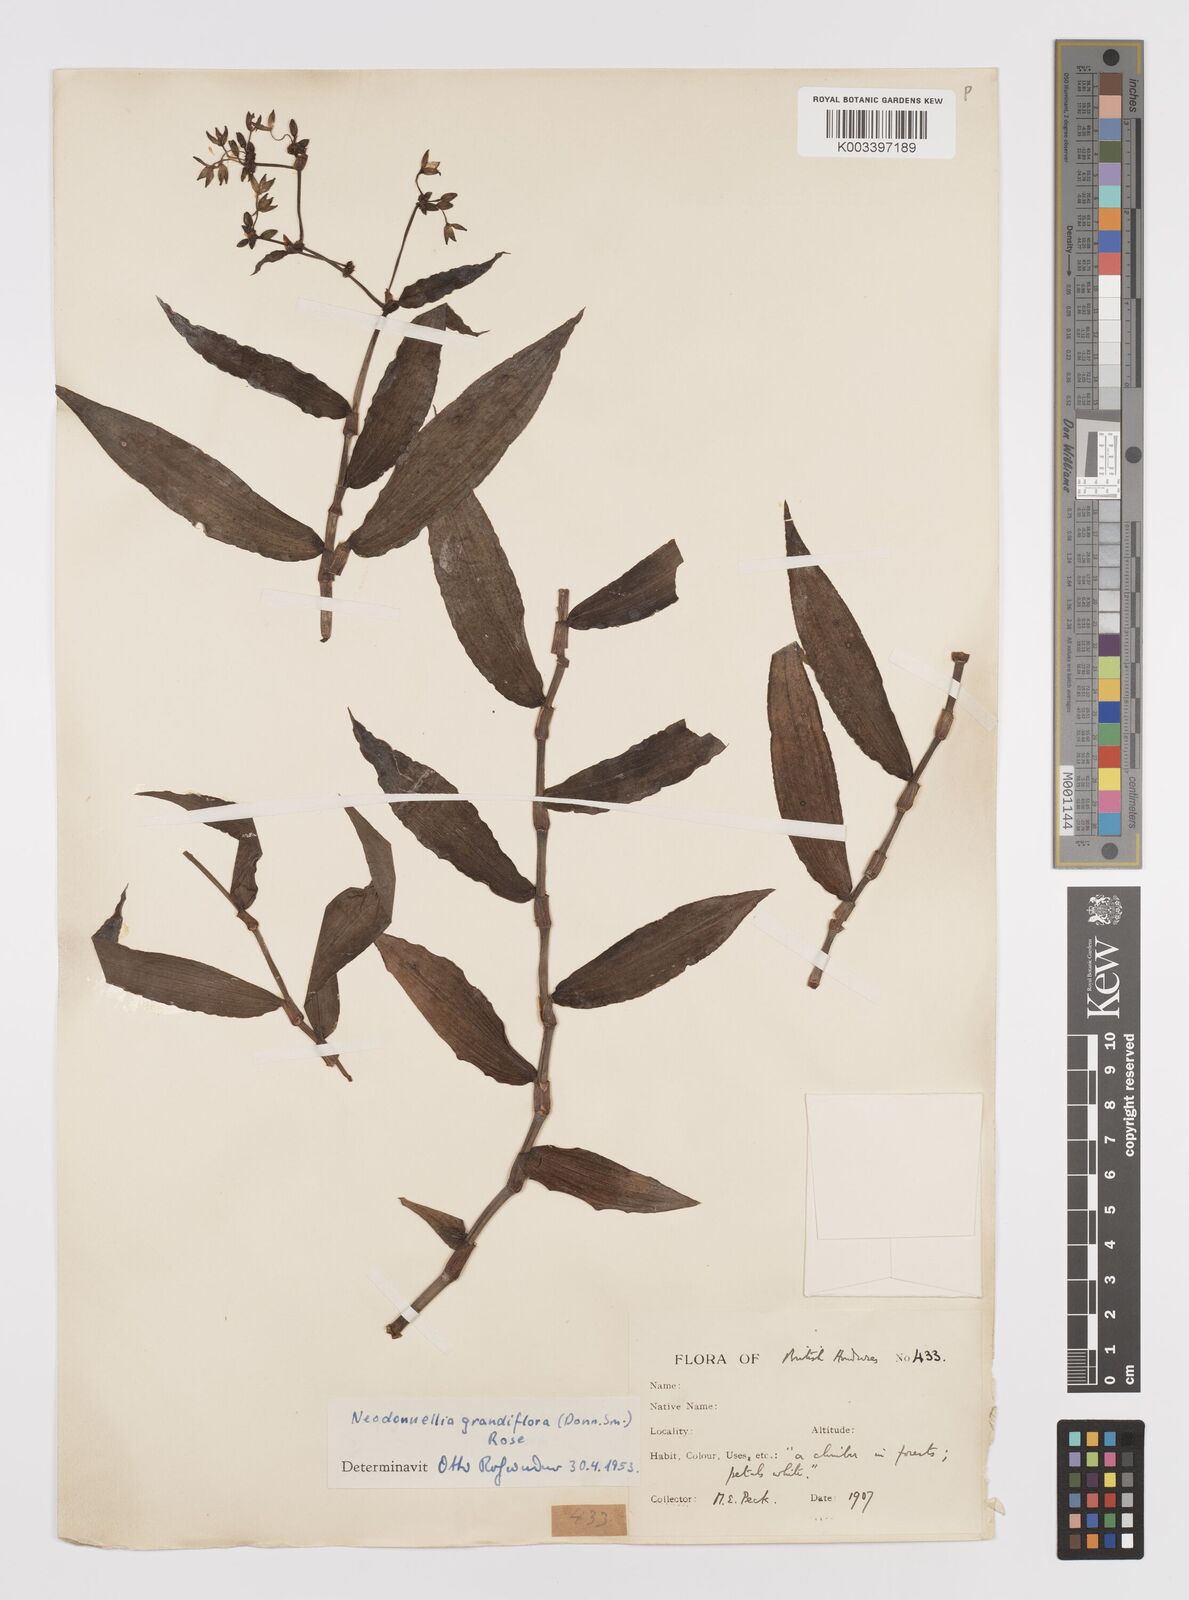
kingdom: Plantae
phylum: Tracheophyta
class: Liliopsida
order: Commelinales
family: Commelinaceae
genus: Callisia
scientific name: Callisia grandiflora
